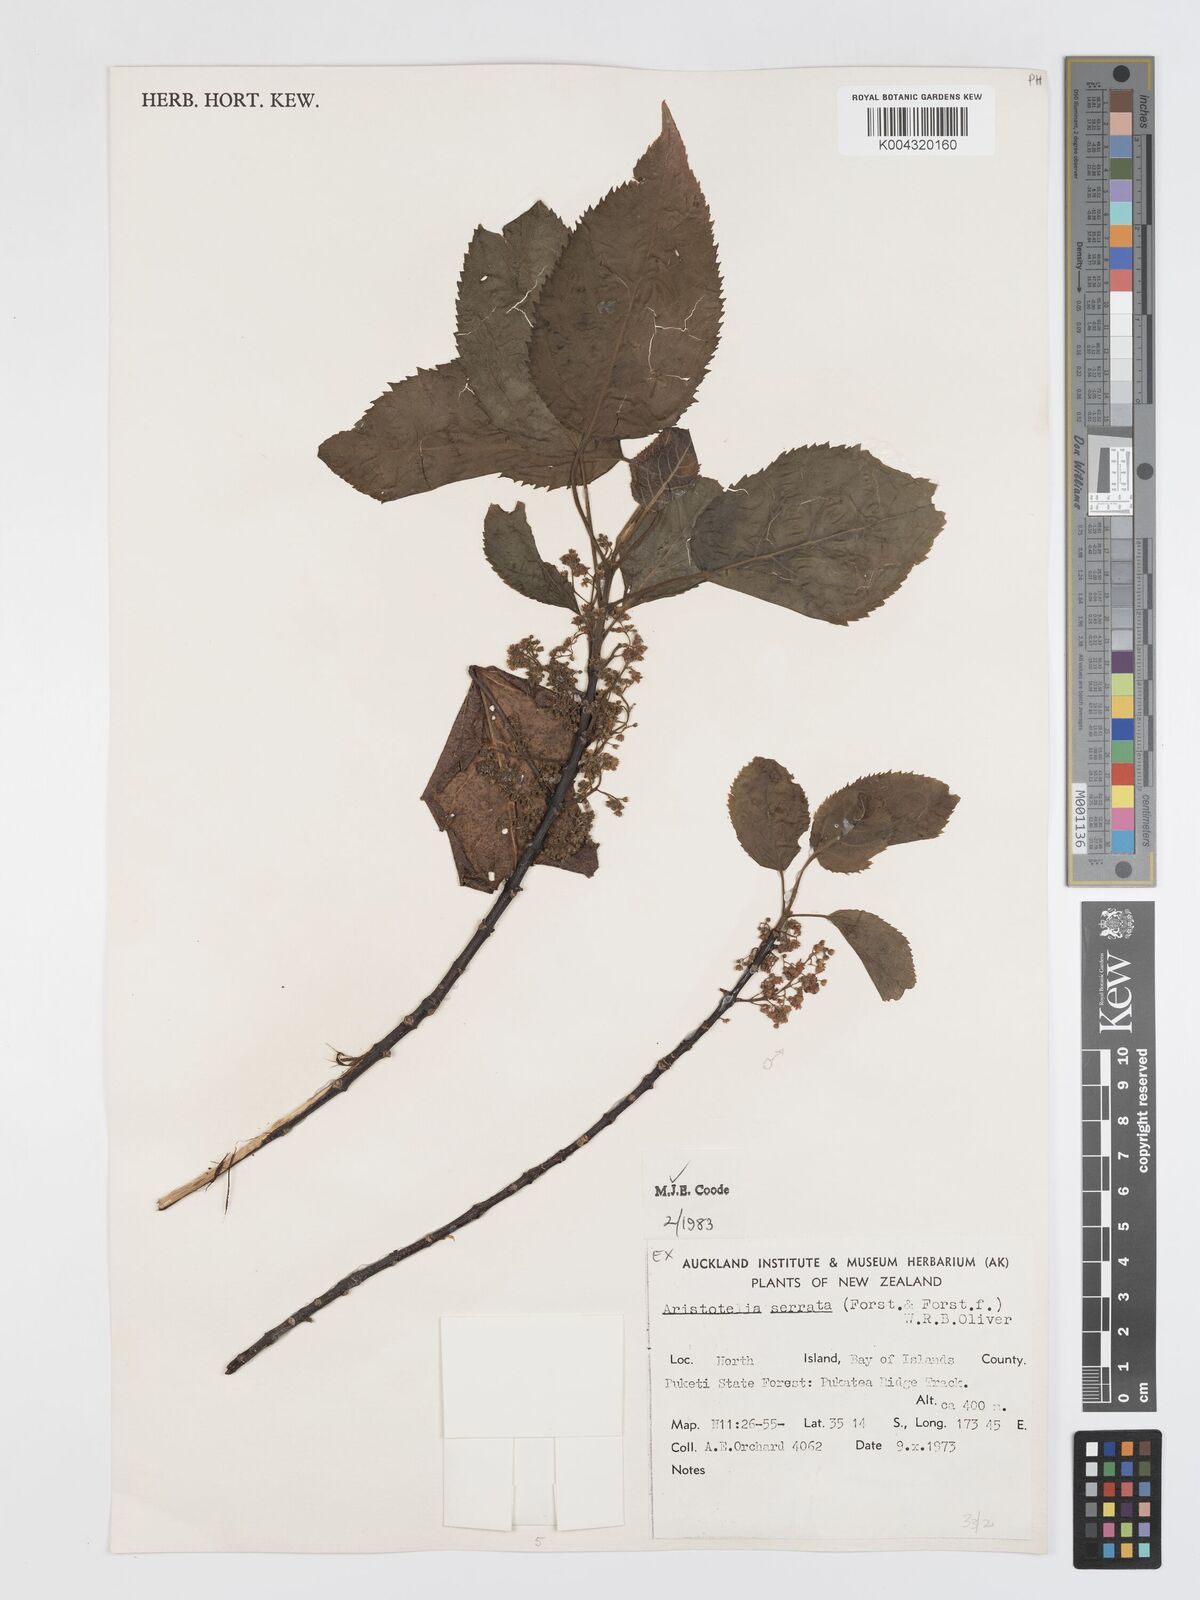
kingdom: Plantae
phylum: Tracheophyta
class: Magnoliopsida
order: Oxalidales
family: Elaeocarpaceae
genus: Aristotelia
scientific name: Aristotelia serrata
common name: New zealand wineberry
